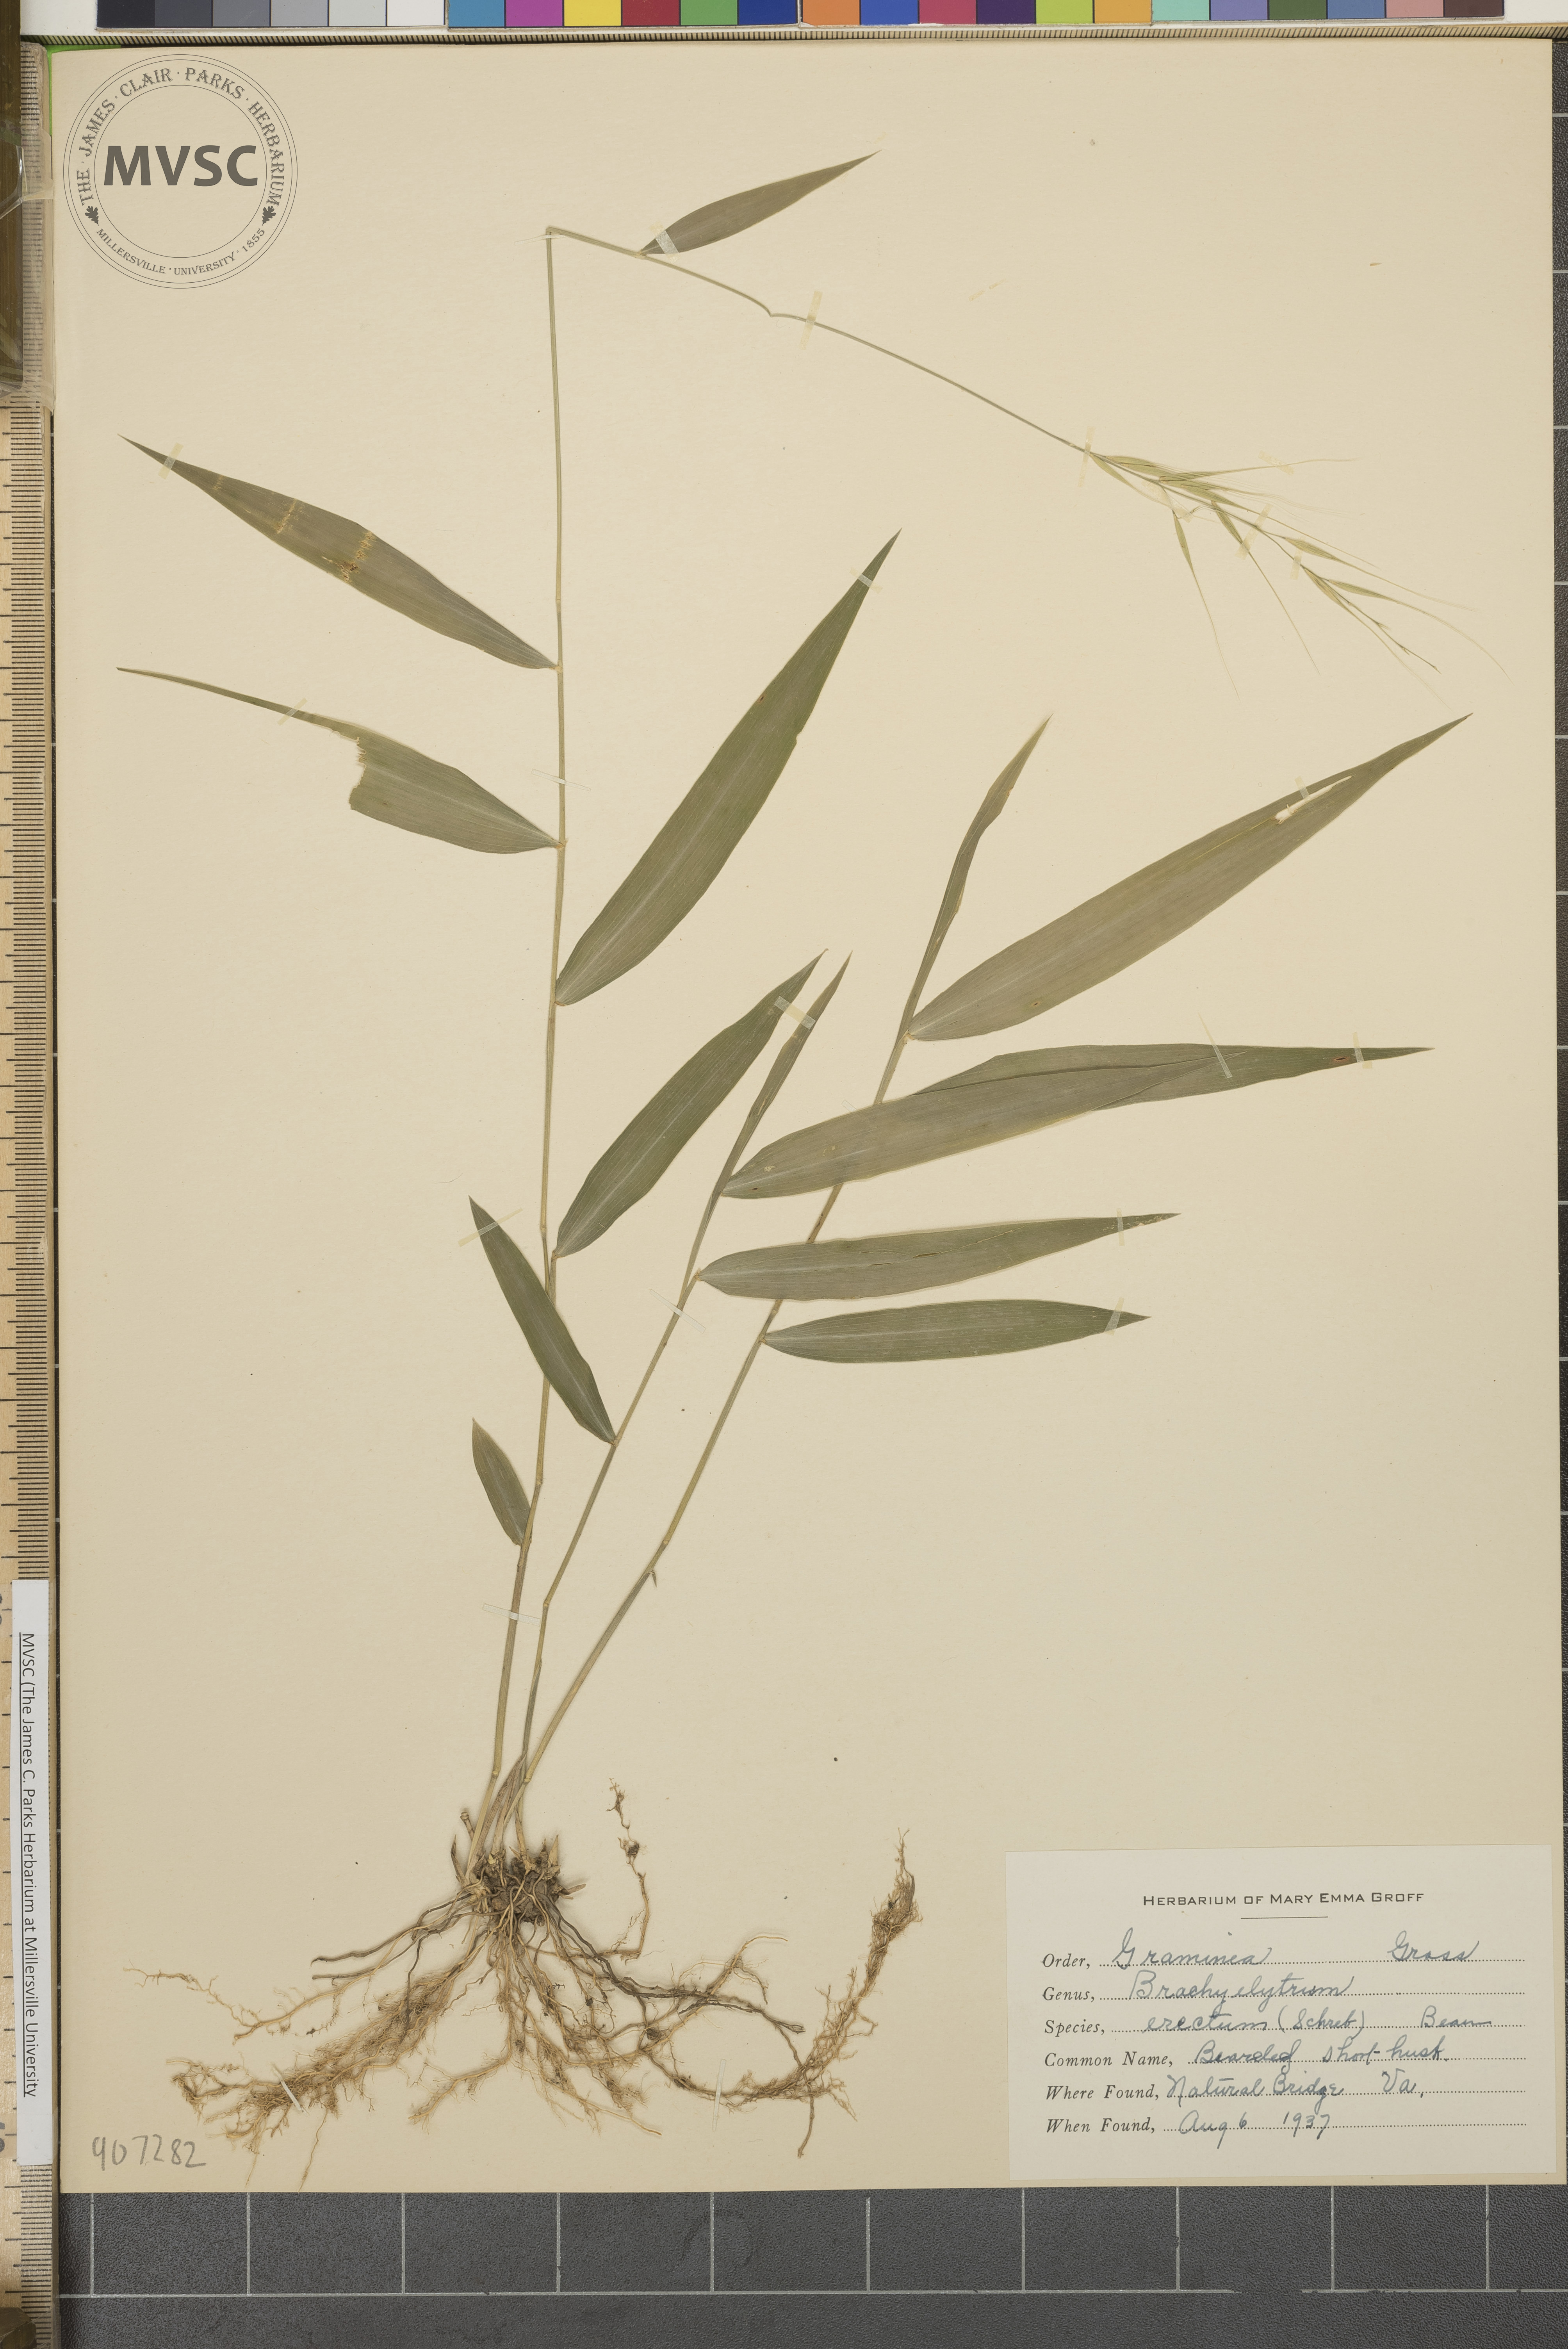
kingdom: Plantae
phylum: Tracheophyta
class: Liliopsida
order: Poales
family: Poaceae
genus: Brachyelytrum
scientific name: Brachyelytrum erectum
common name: Bearded shorthusk
